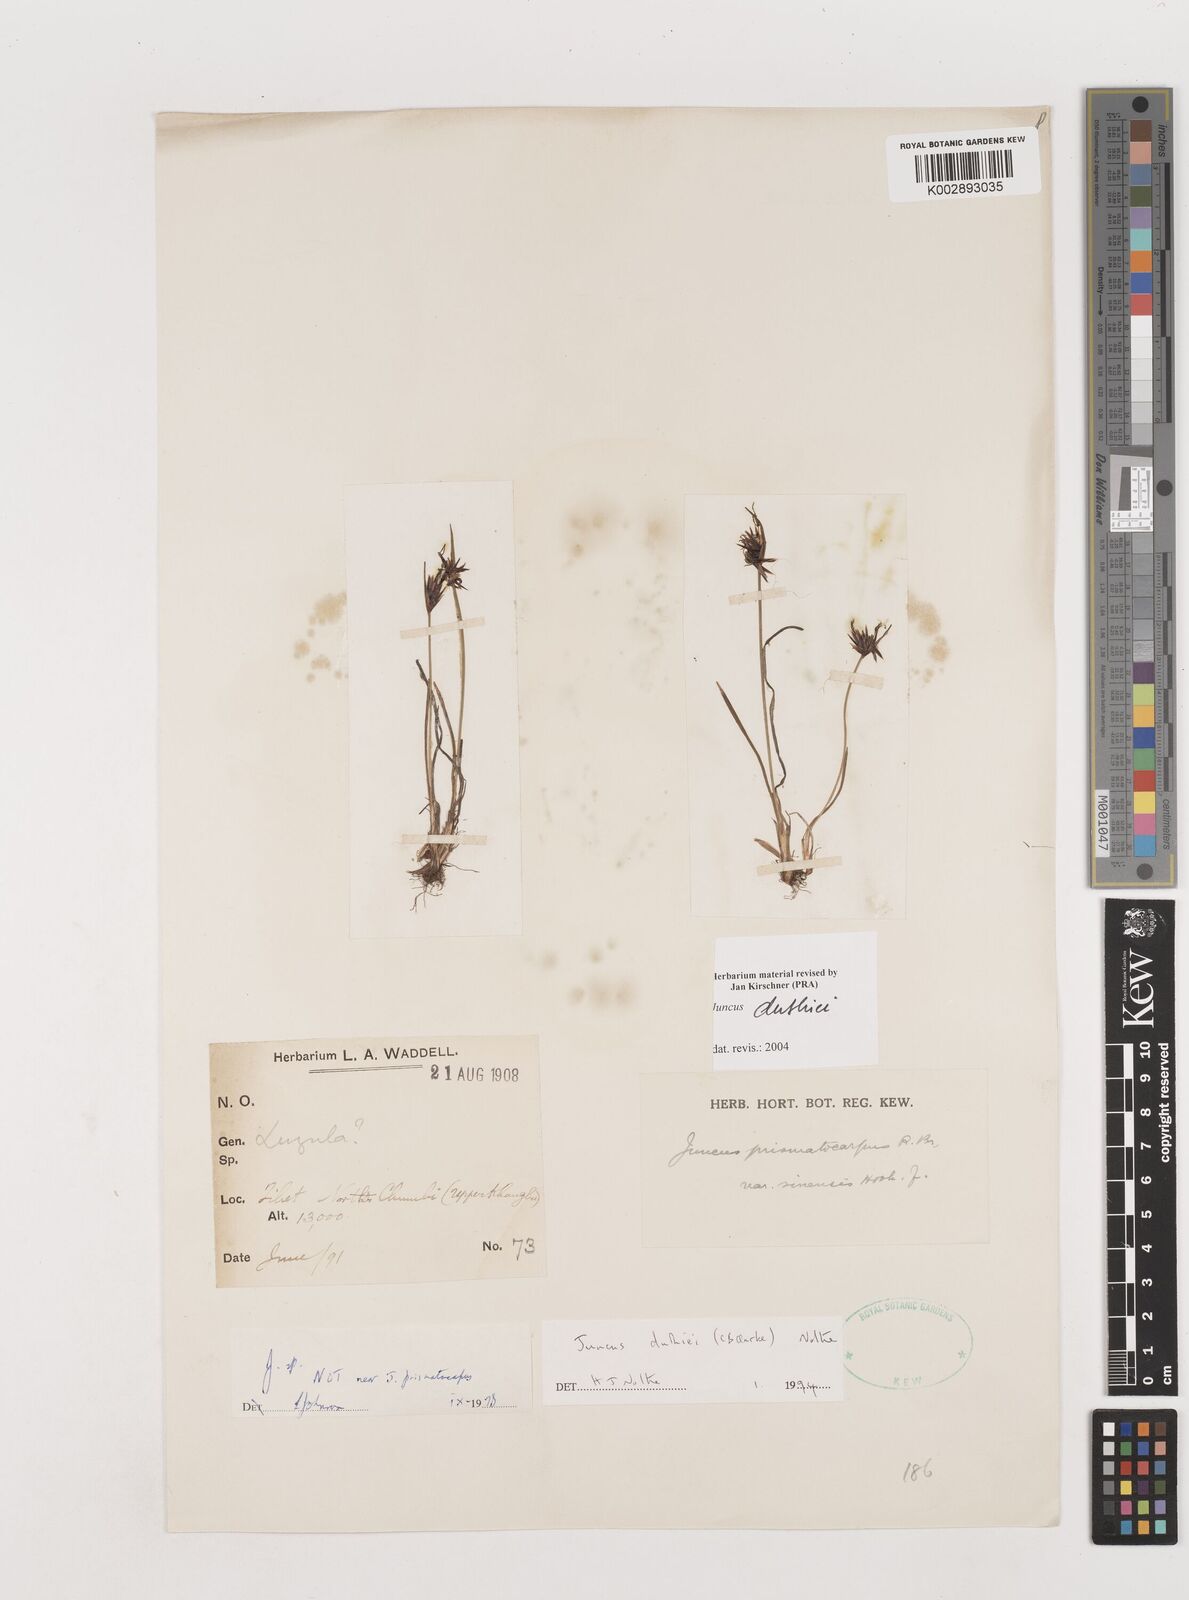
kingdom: Plantae
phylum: Tracheophyta
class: Liliopsida
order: Poales
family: Juncaceae
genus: Juncus
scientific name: Juncus duthiei
